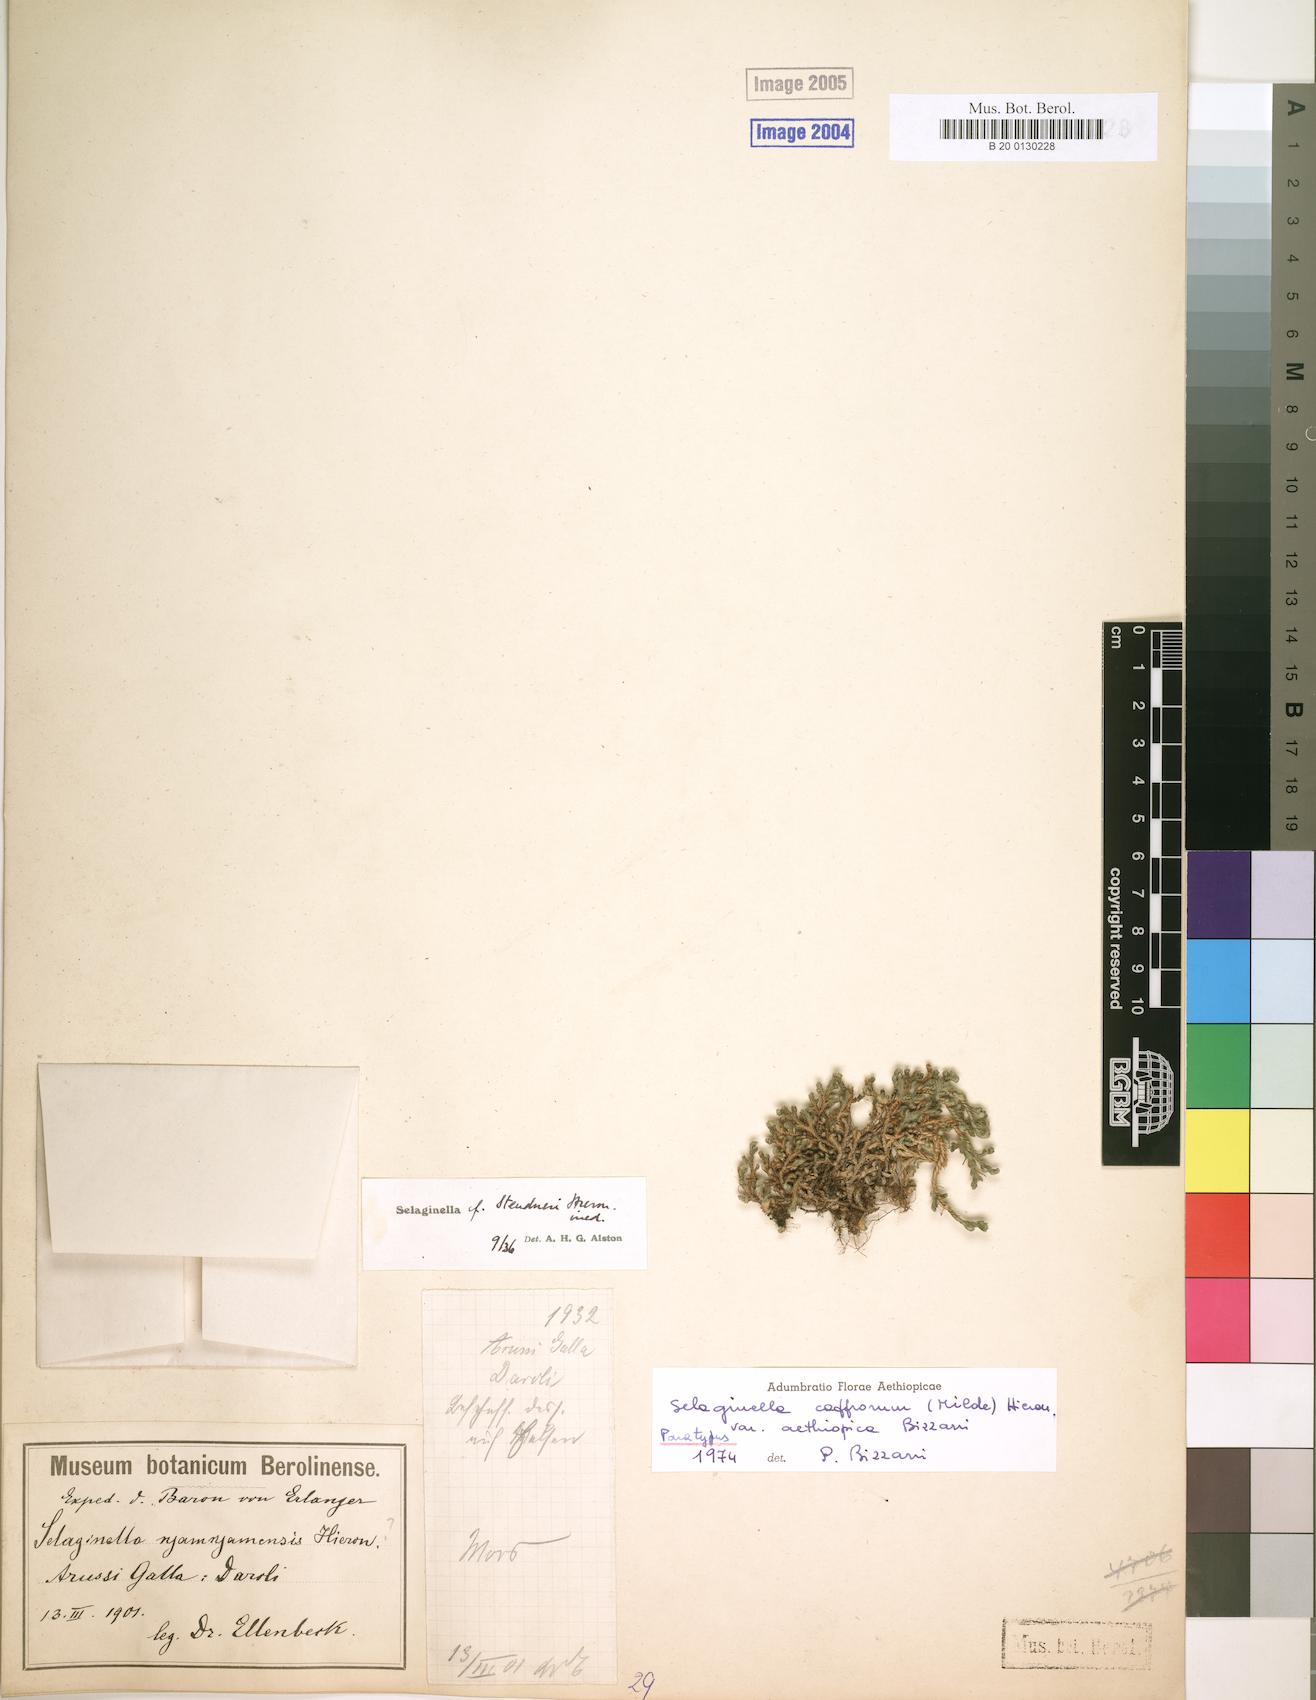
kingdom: Plantae
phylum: Tracheophyta
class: Lycopodiopsida
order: Selaginellales
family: Selaginellaceae
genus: Selaginella
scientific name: Selaginella caffrorum
